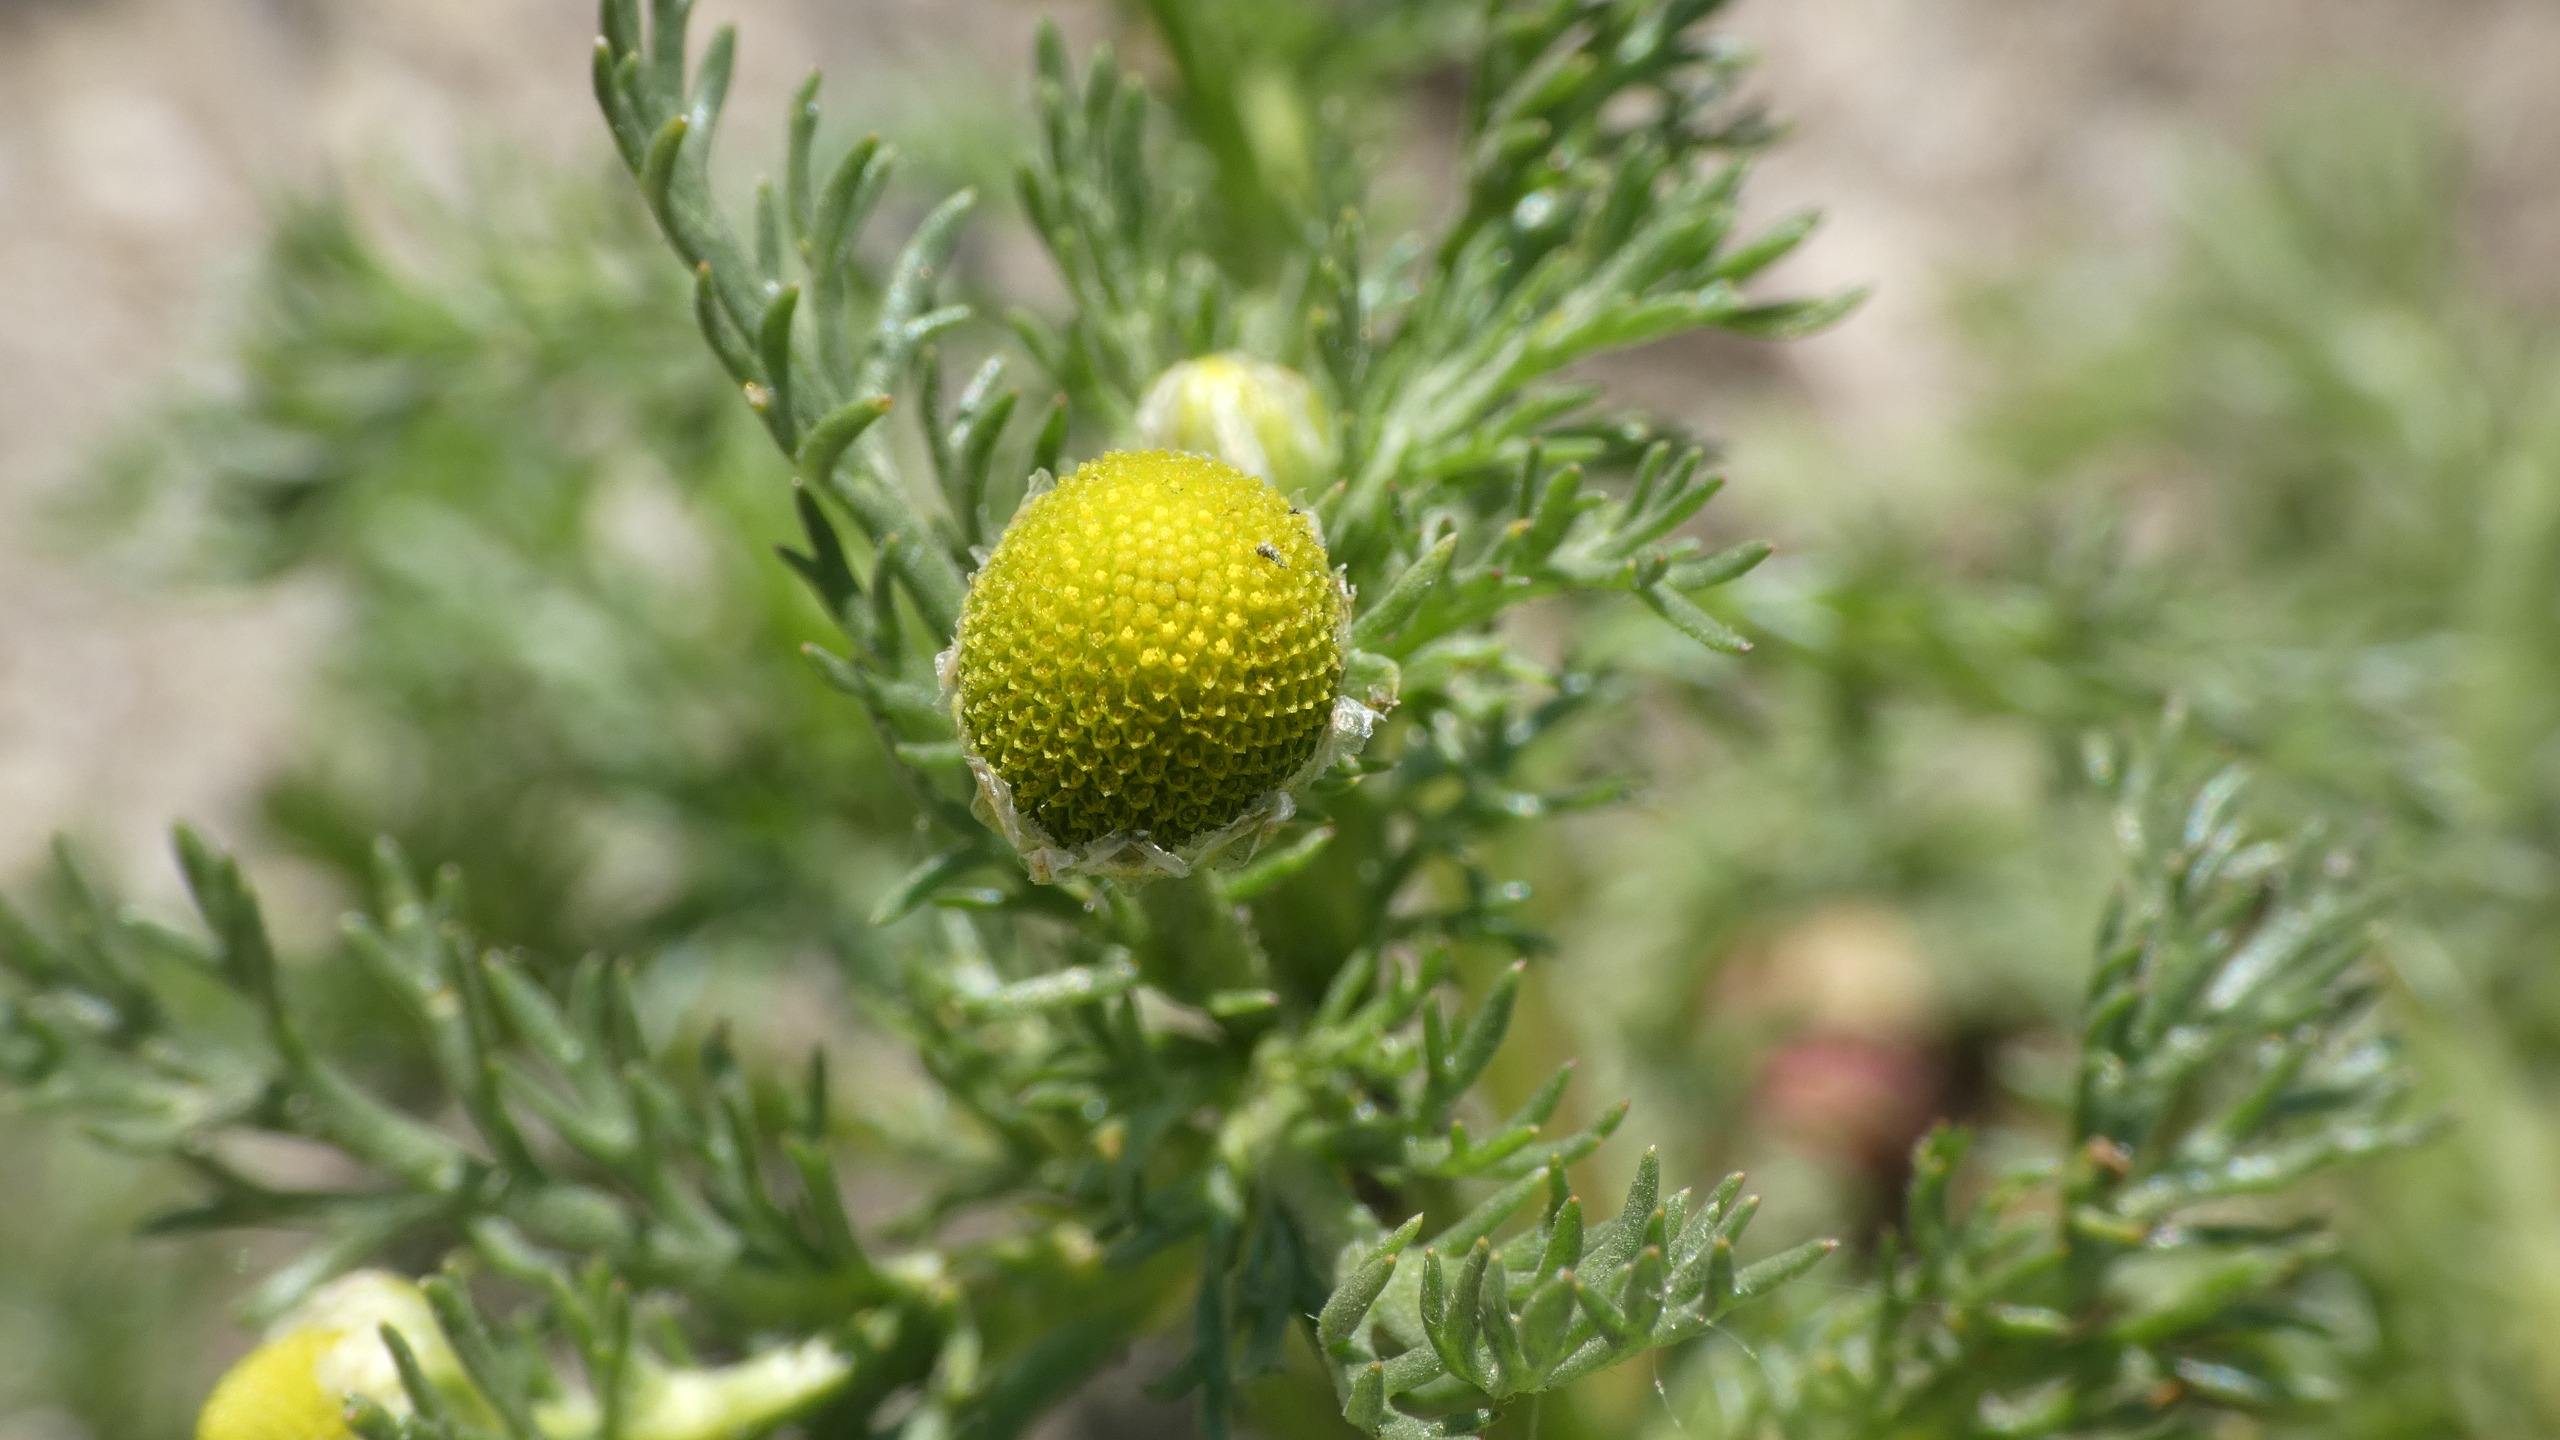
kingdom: Plantae
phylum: Tracheophyta
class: Magnoliopsida
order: Asterales
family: Asteraceae
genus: Matricaria
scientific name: Matricaria discoidea
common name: Skive-kamille
